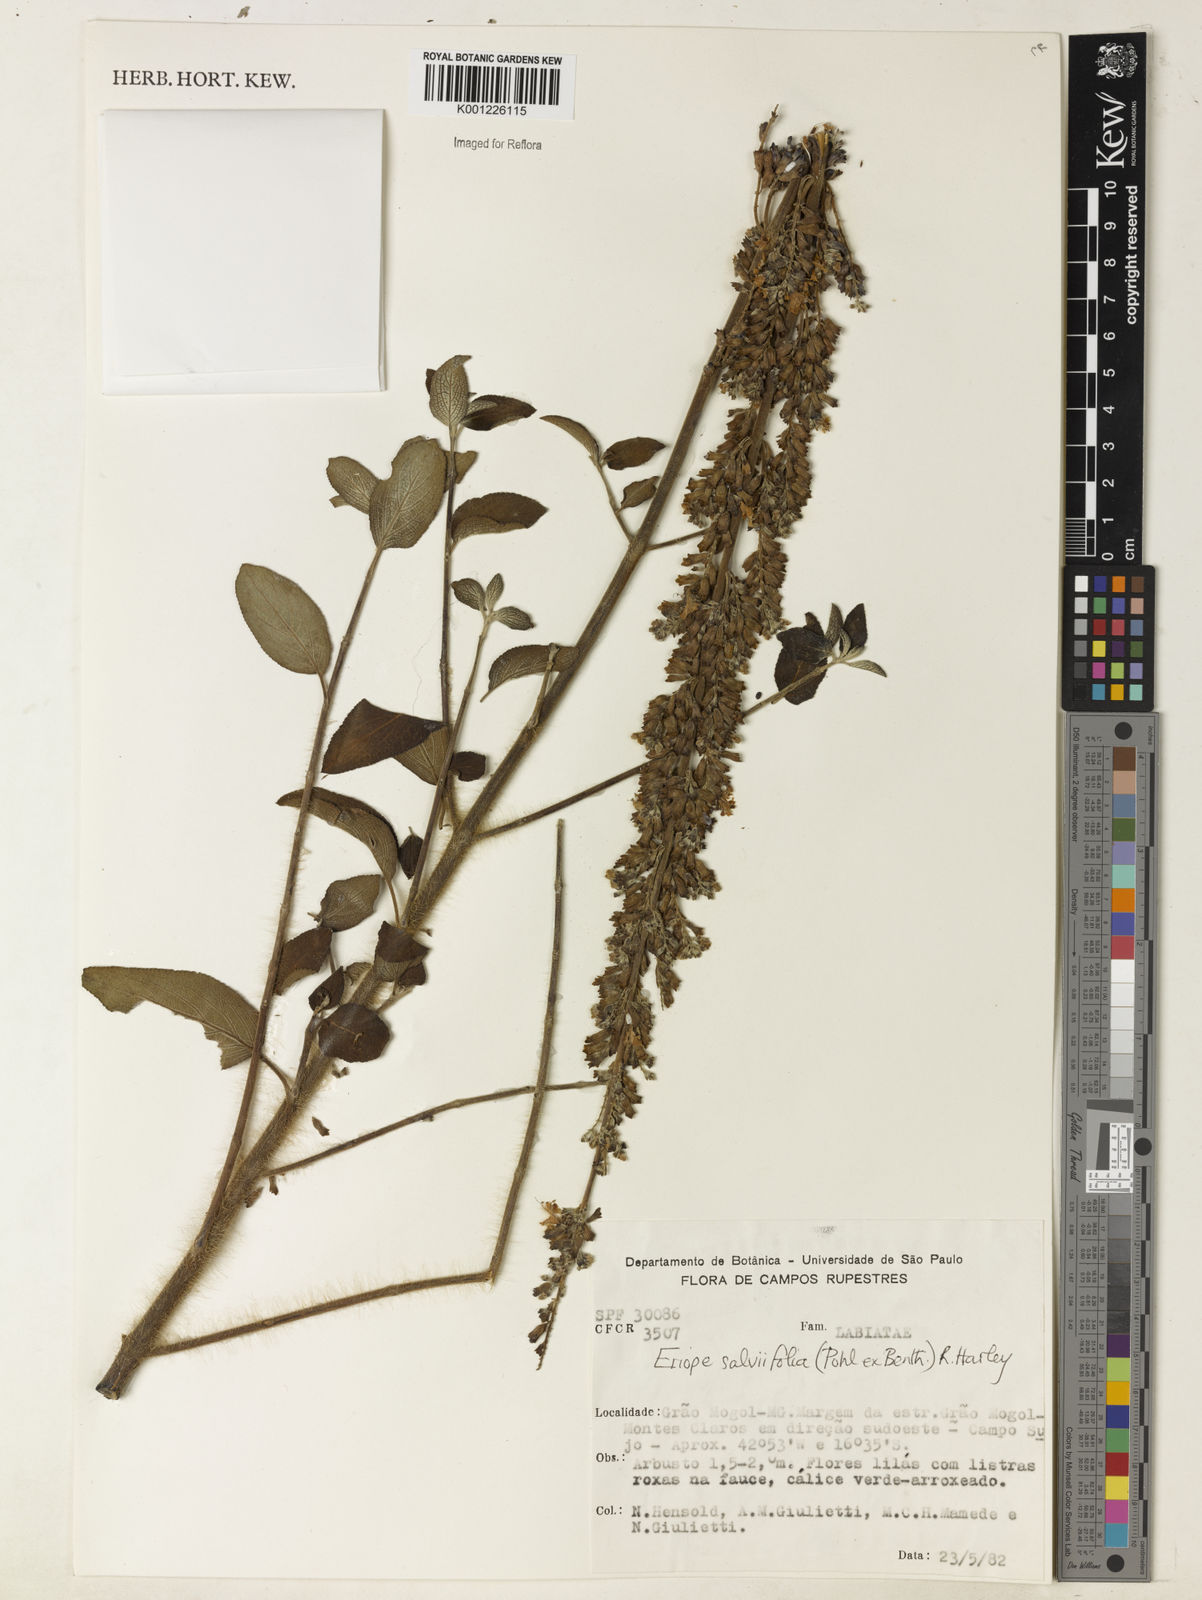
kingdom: Plantae
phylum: Tracheophyta
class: Magnoliopsida
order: Lamiales
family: Lamiaceae
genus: Eriope
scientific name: Eriope salviifolia
